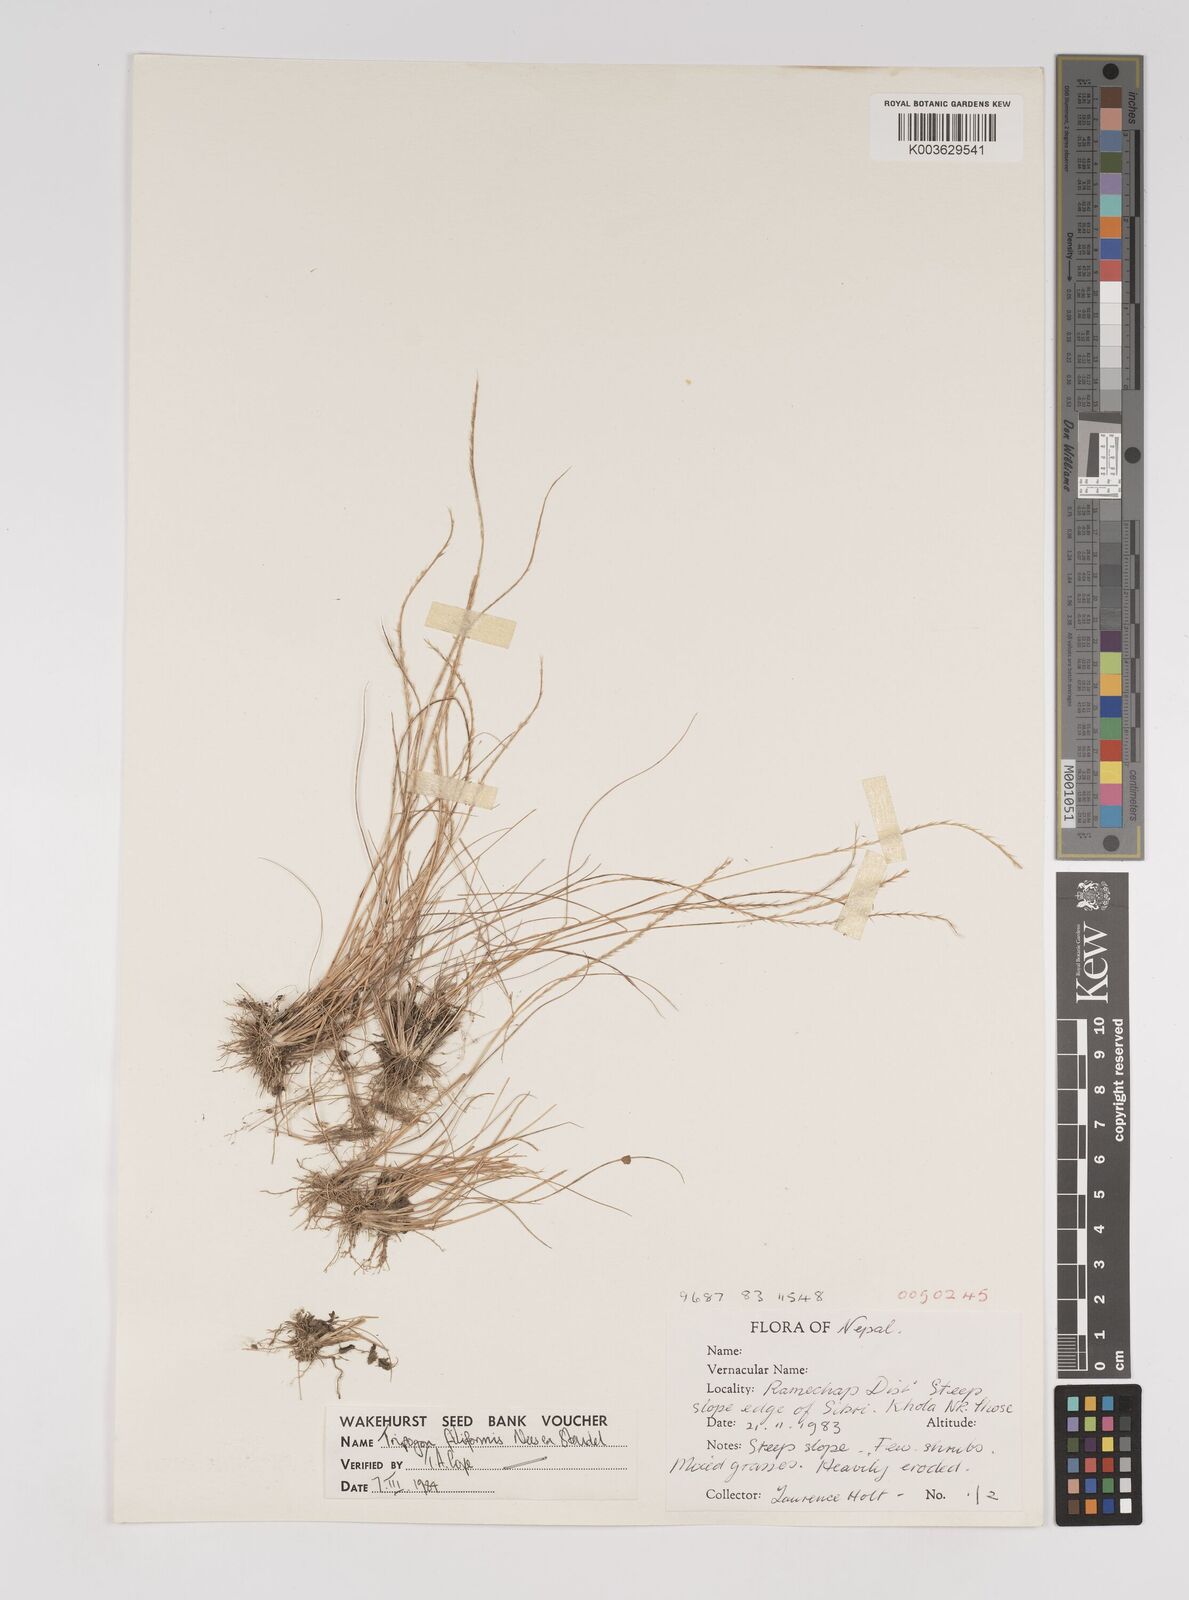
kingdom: Plantae
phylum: Tracheophyta
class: Liliopsida
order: Poales
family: Poaceae
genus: Tripogon
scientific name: Tripogon filiformis
